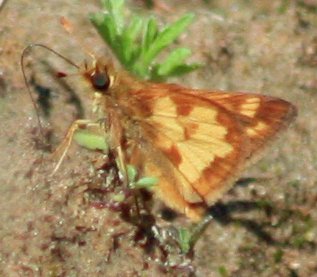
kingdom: Animalia
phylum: Arthropoda
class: Insecta
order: Lepidoptera
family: Hesperiidae
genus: Polites
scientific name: Polites coras
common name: Peck's Skipper
